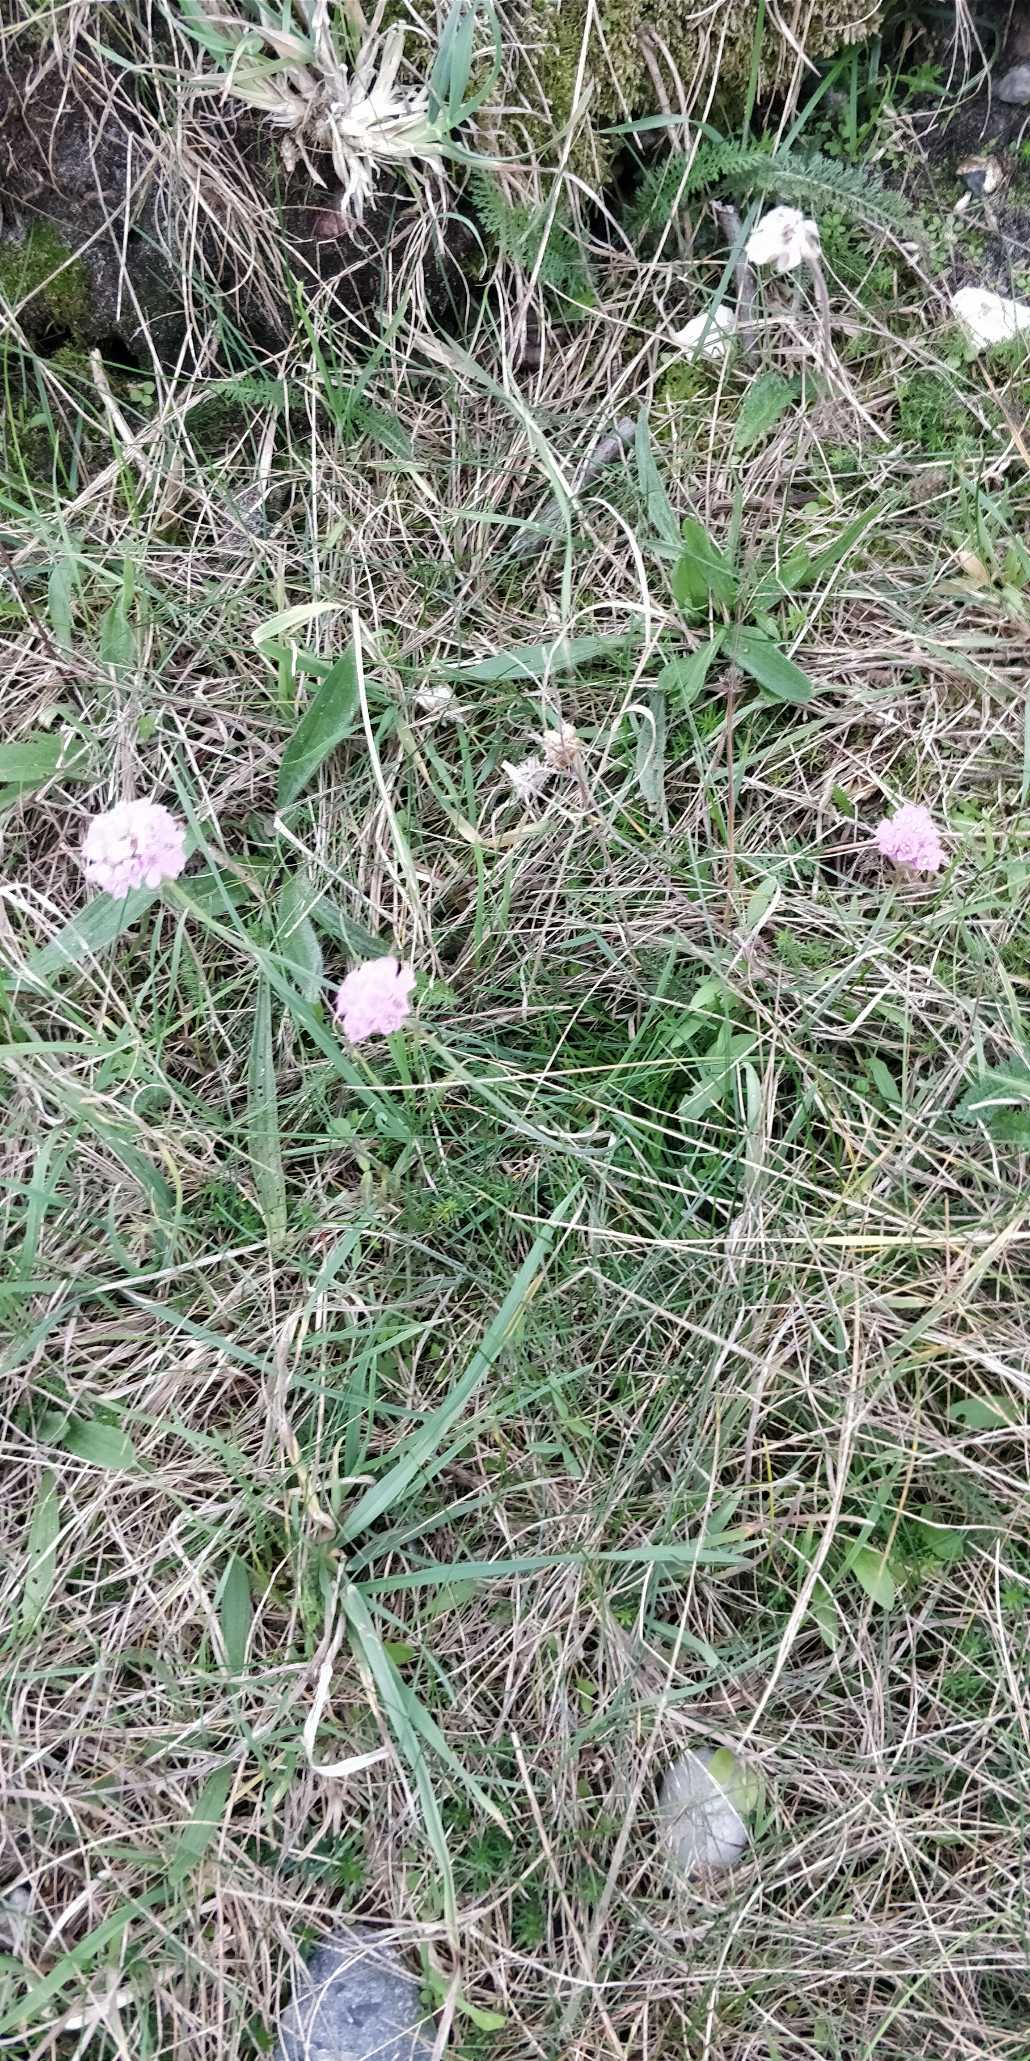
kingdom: Plantae
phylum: Tracheophyta
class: Magnoliopsida
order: Caryophyllales
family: Plumbaginaceae
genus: Armeria
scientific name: Armeria maritima
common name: Engelskgræs
